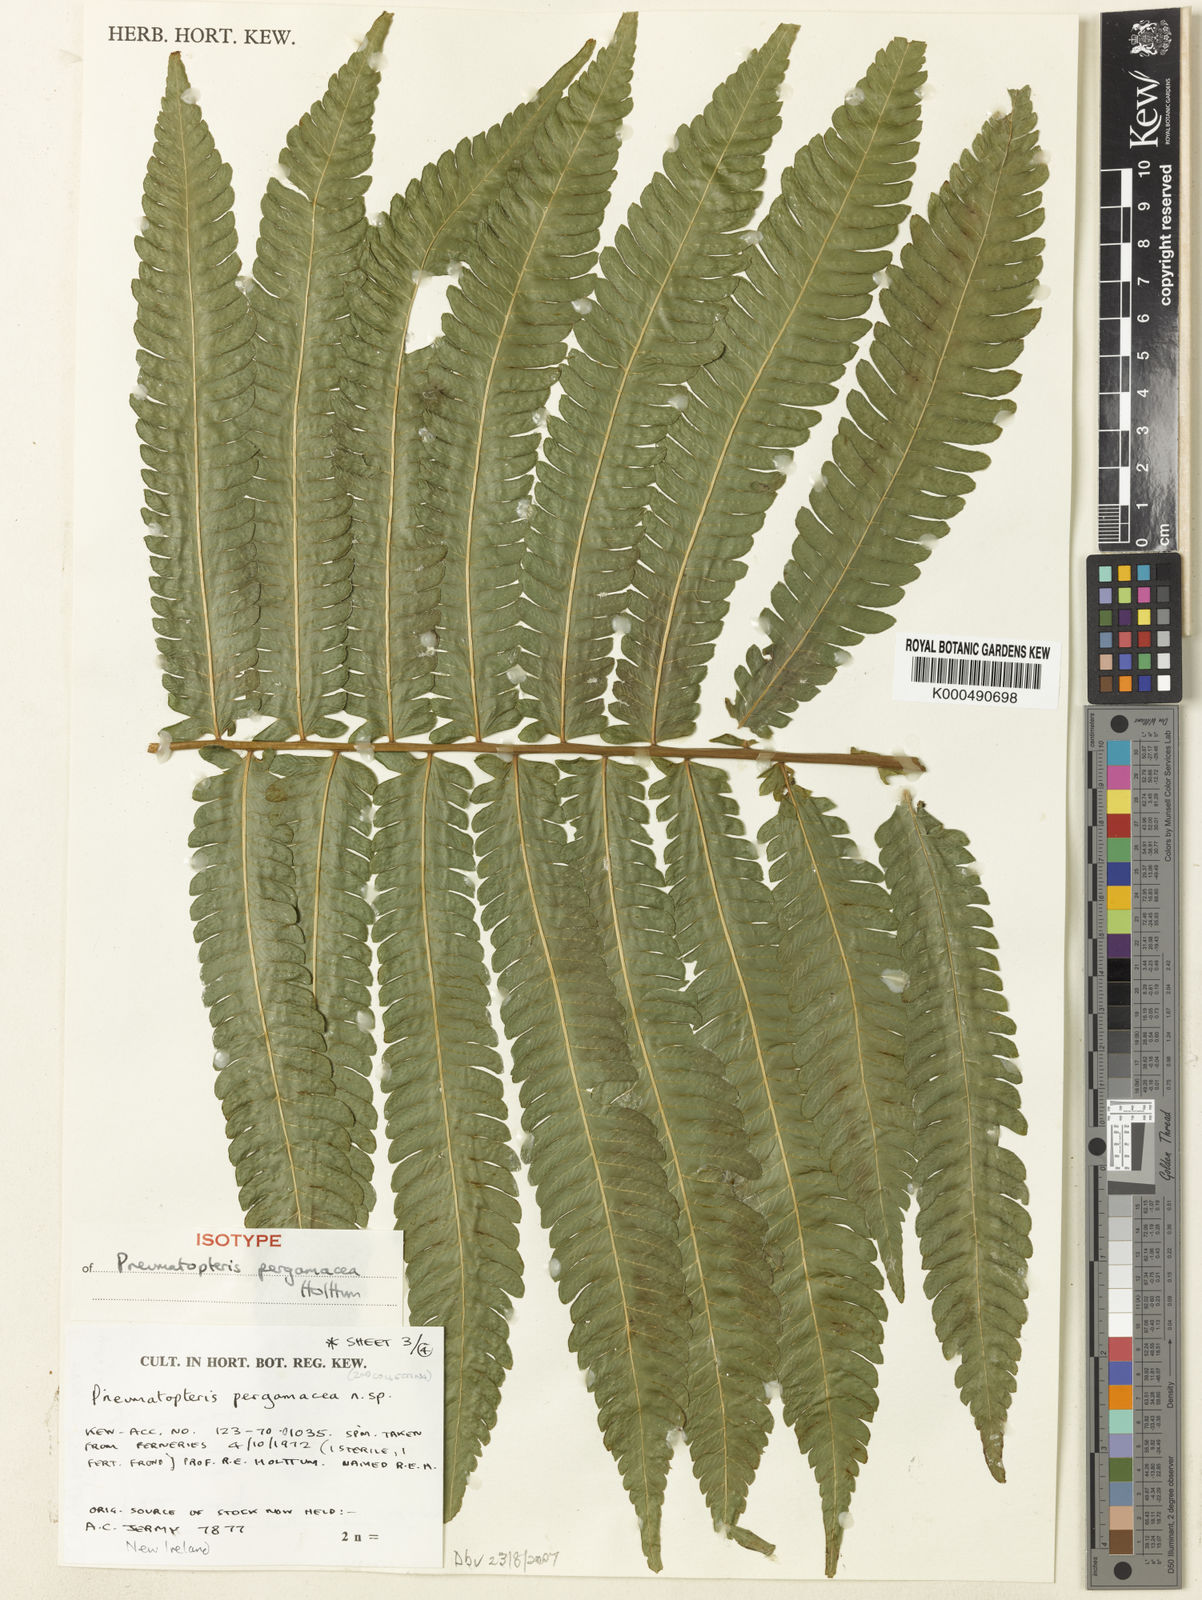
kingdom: Plantae
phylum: Tracheophyta
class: Polypodiopsida
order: Polypodiales
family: Thelypteridaceae
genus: Reholttumia
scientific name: Reholttumia pergamacea
